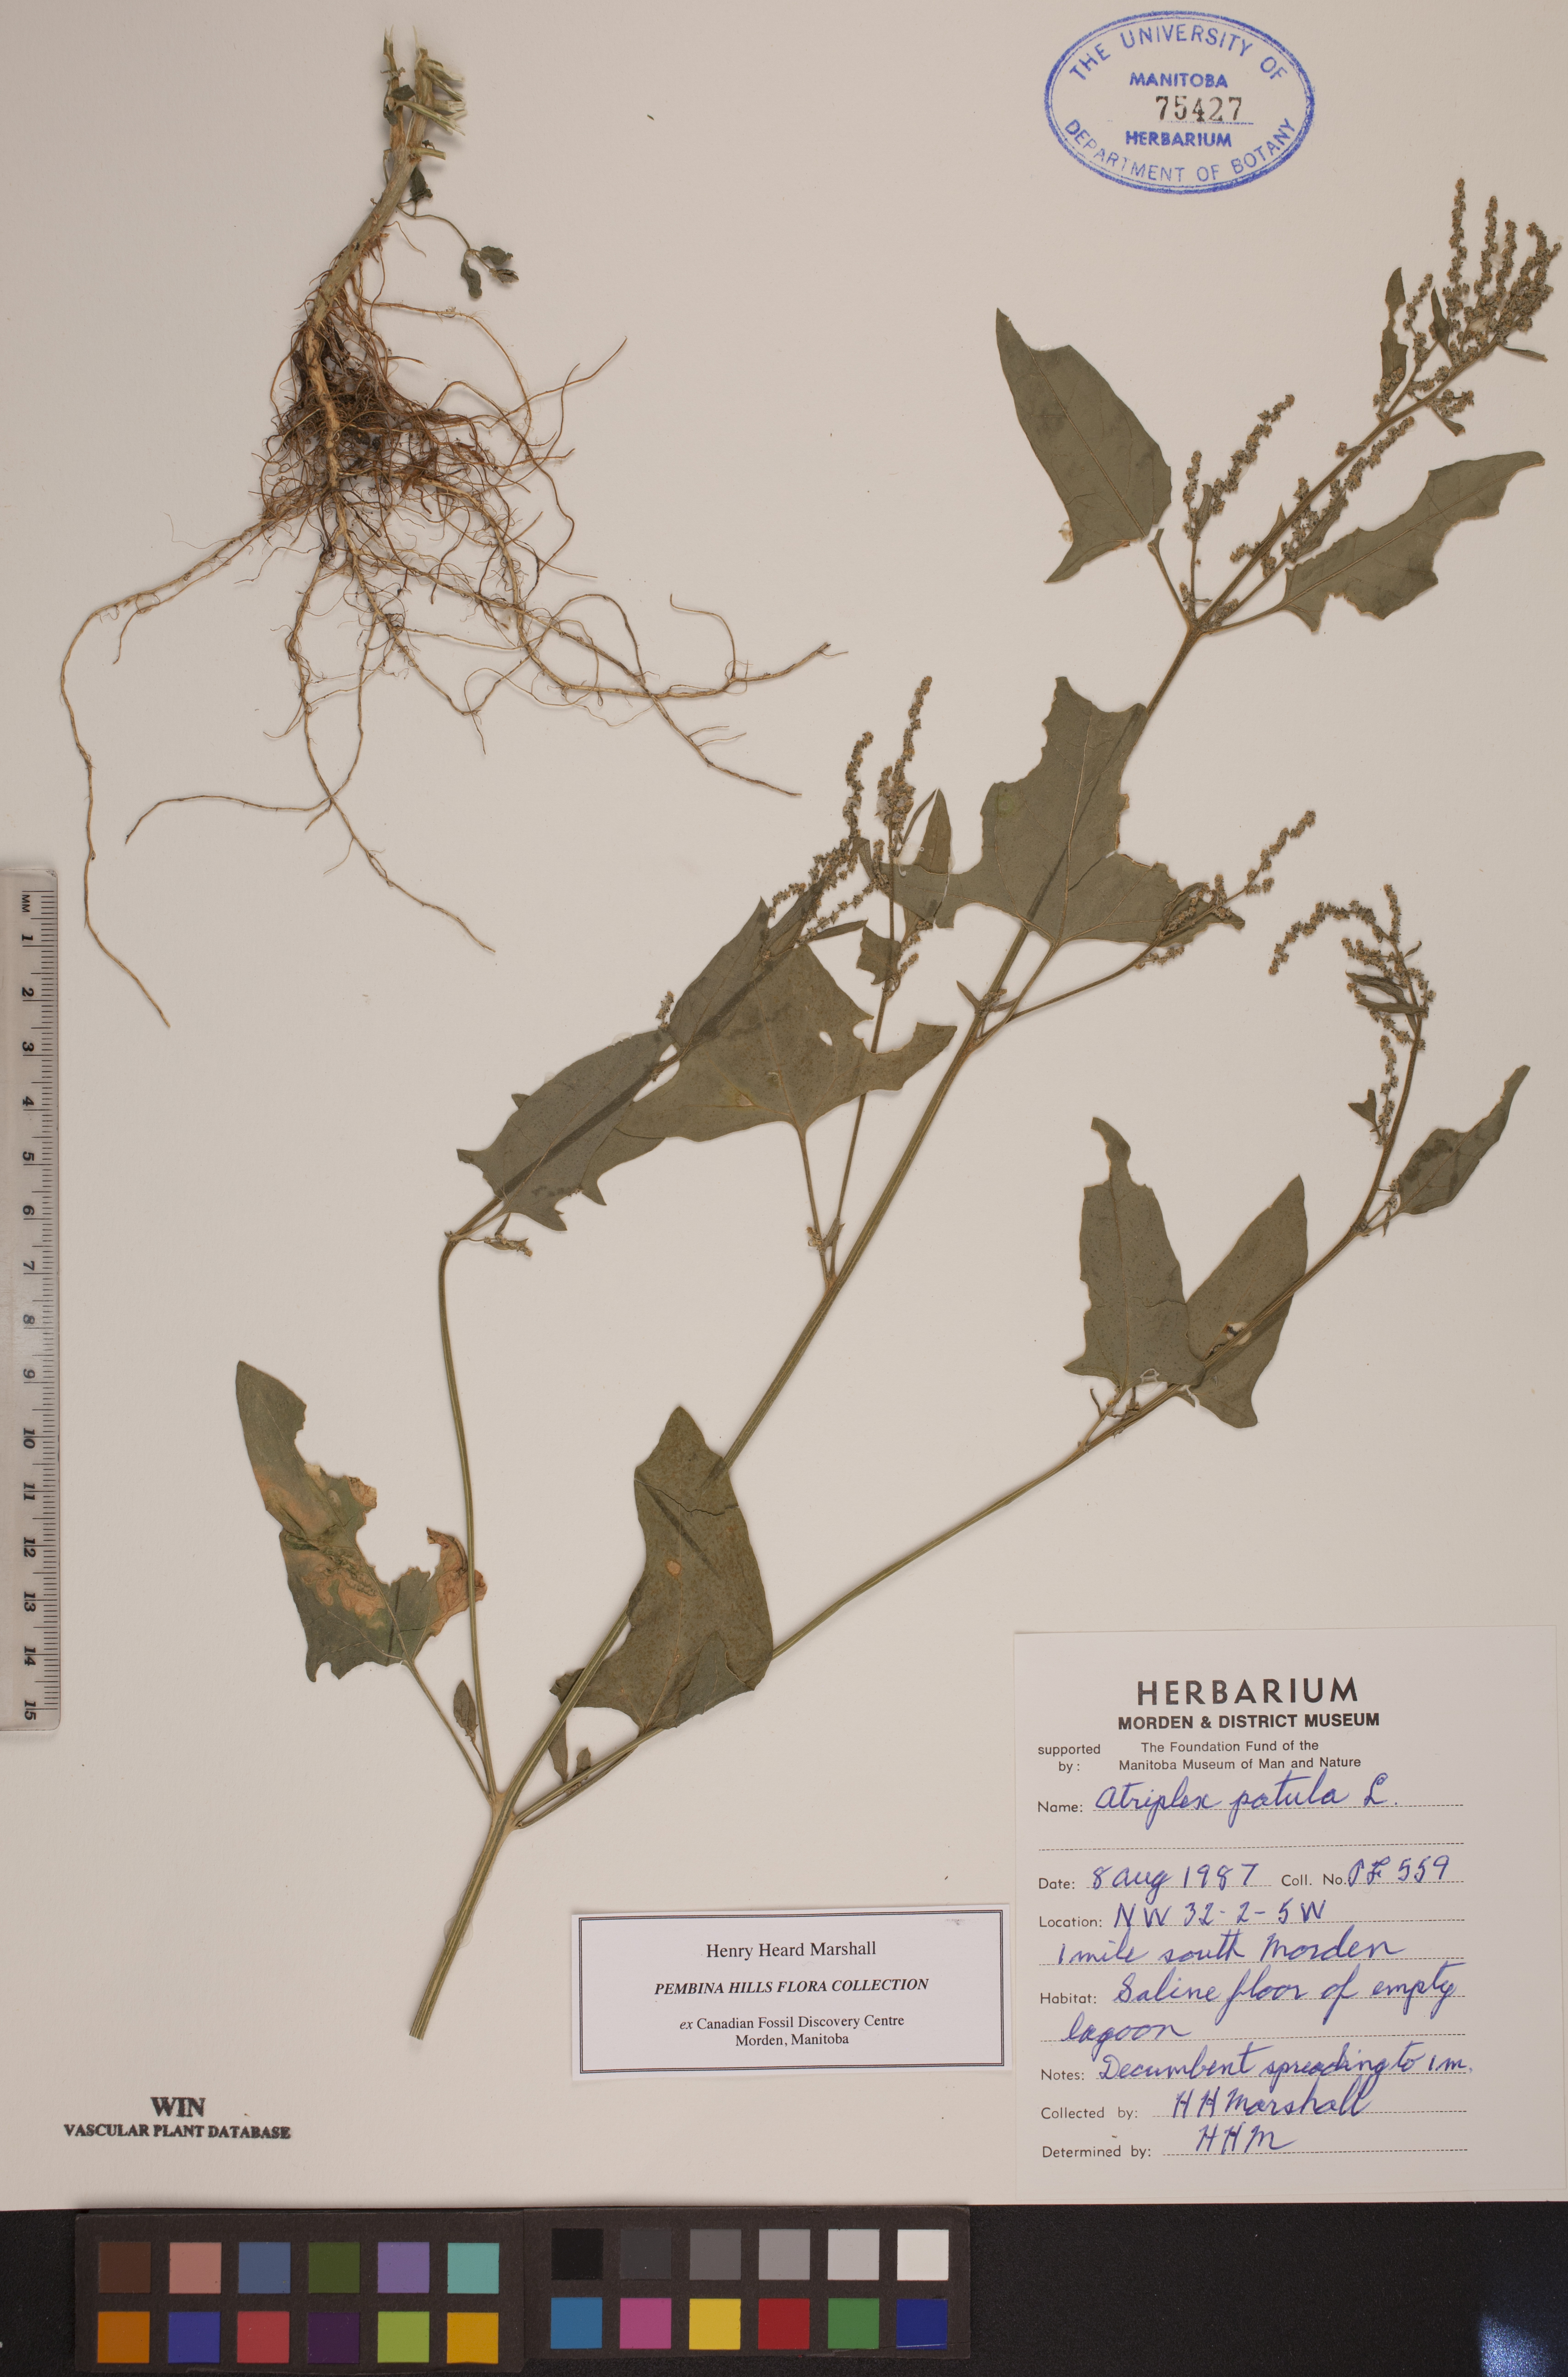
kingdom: Plantae
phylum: Tracheophyta
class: Magnoliopsida
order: Caryophyllales
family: Amaranthaceae
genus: Atriplex
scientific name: Atriplex patula
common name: Common orache
